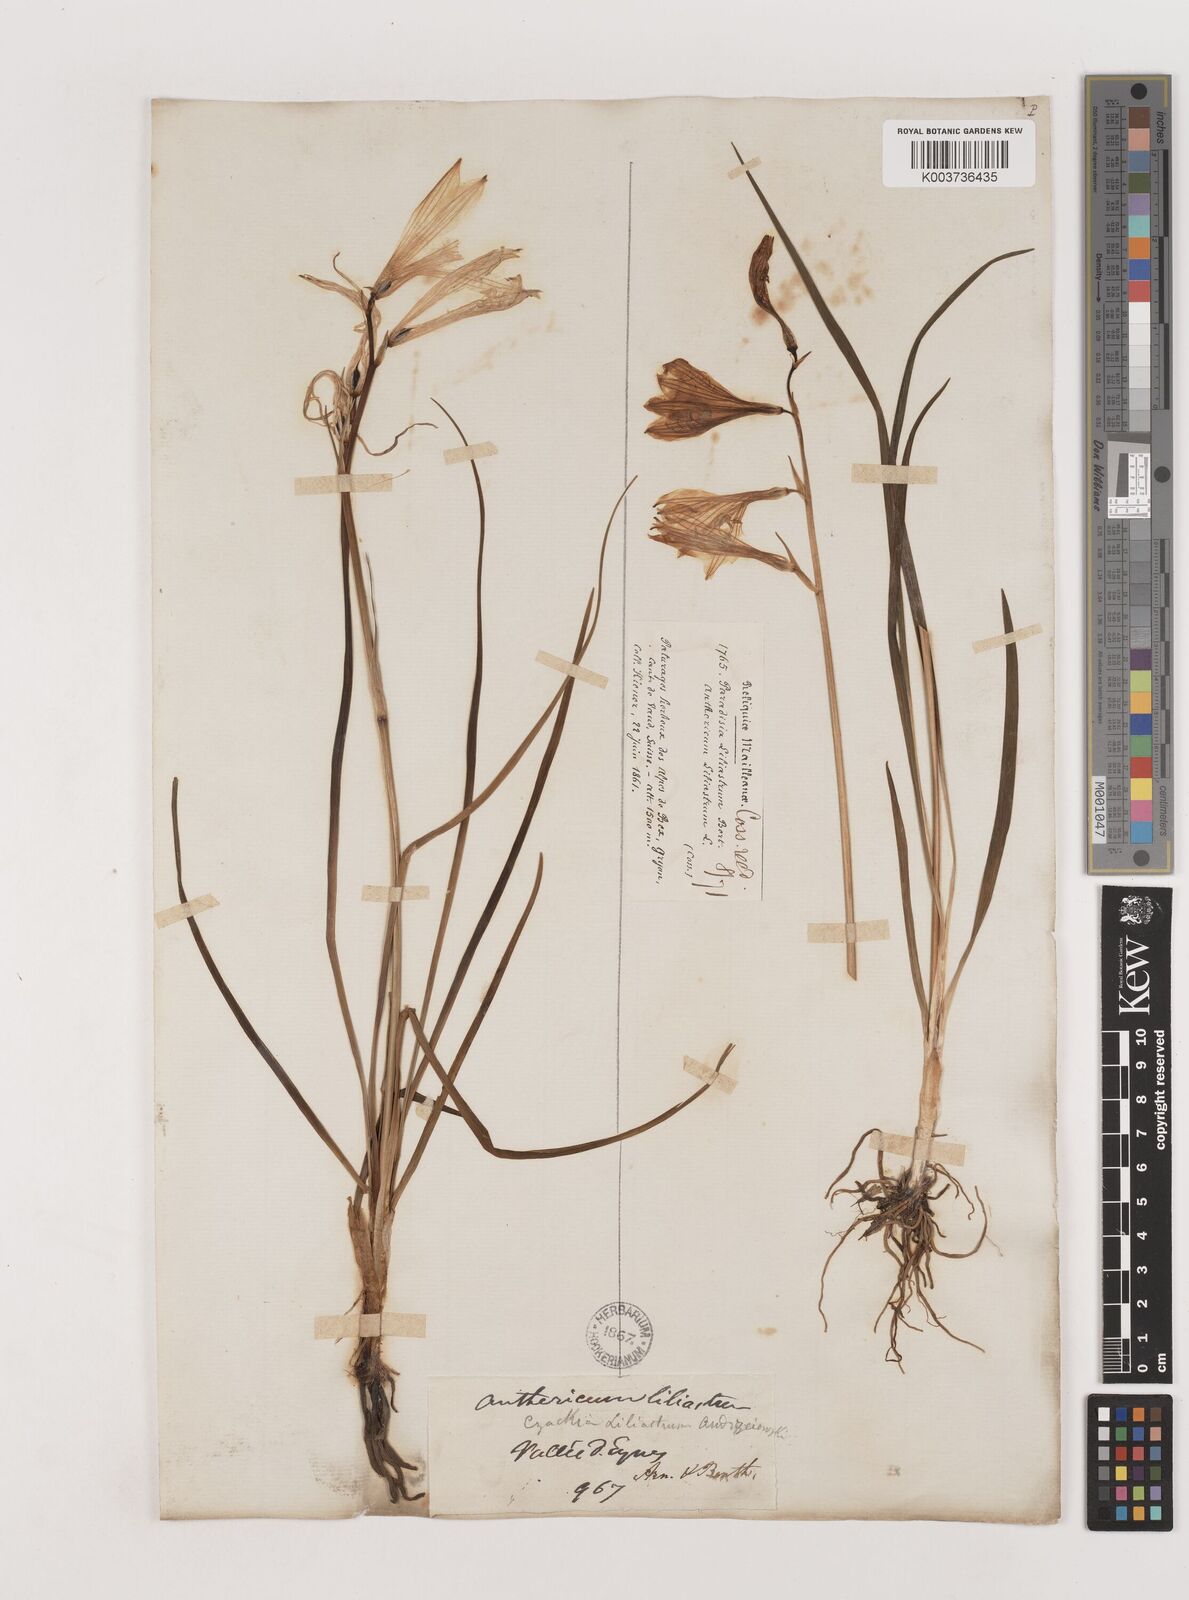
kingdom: Plantae
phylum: Tracheophyta
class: Liliopsida
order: Asparagales
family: Asparagaceae
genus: Paradisea
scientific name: Paradisea liliastrum
